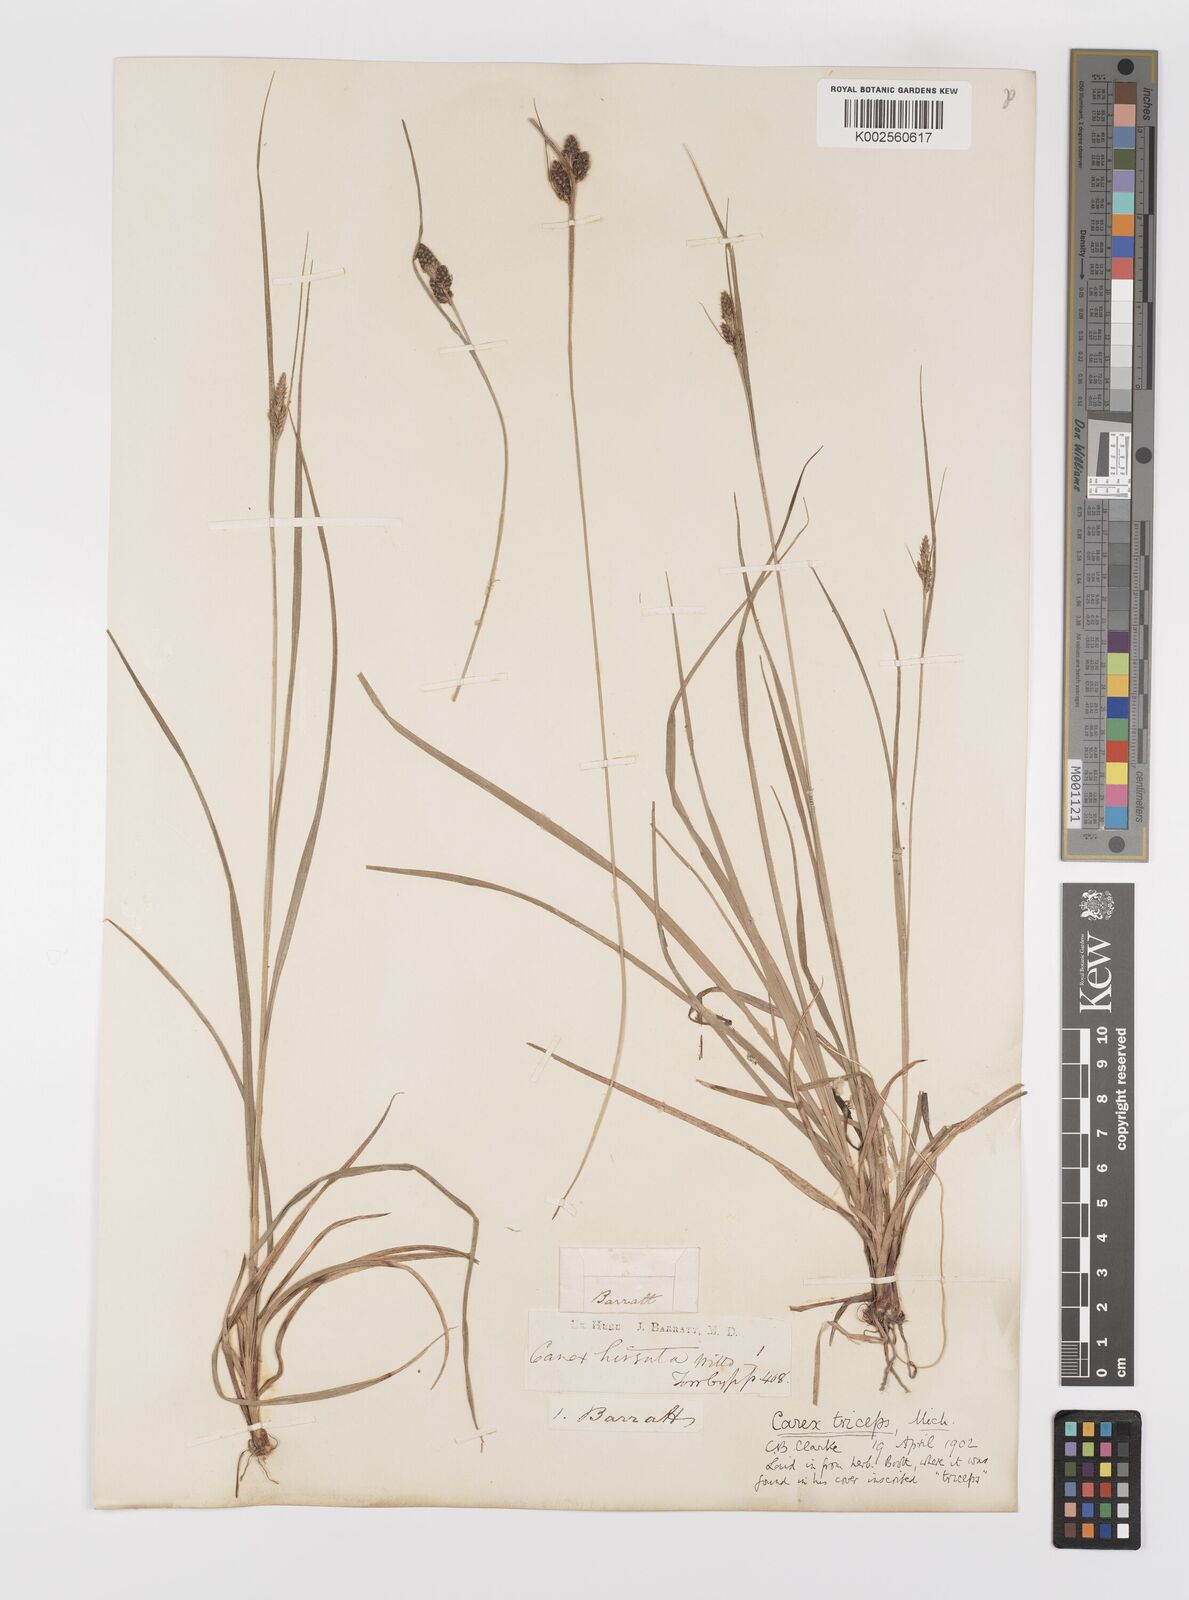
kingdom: Plantae
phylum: Tracheophyta
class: Liliopsida
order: Poales
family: Cyperaceae
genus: Carex
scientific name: Carex complanata
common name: Hirsute sedge
